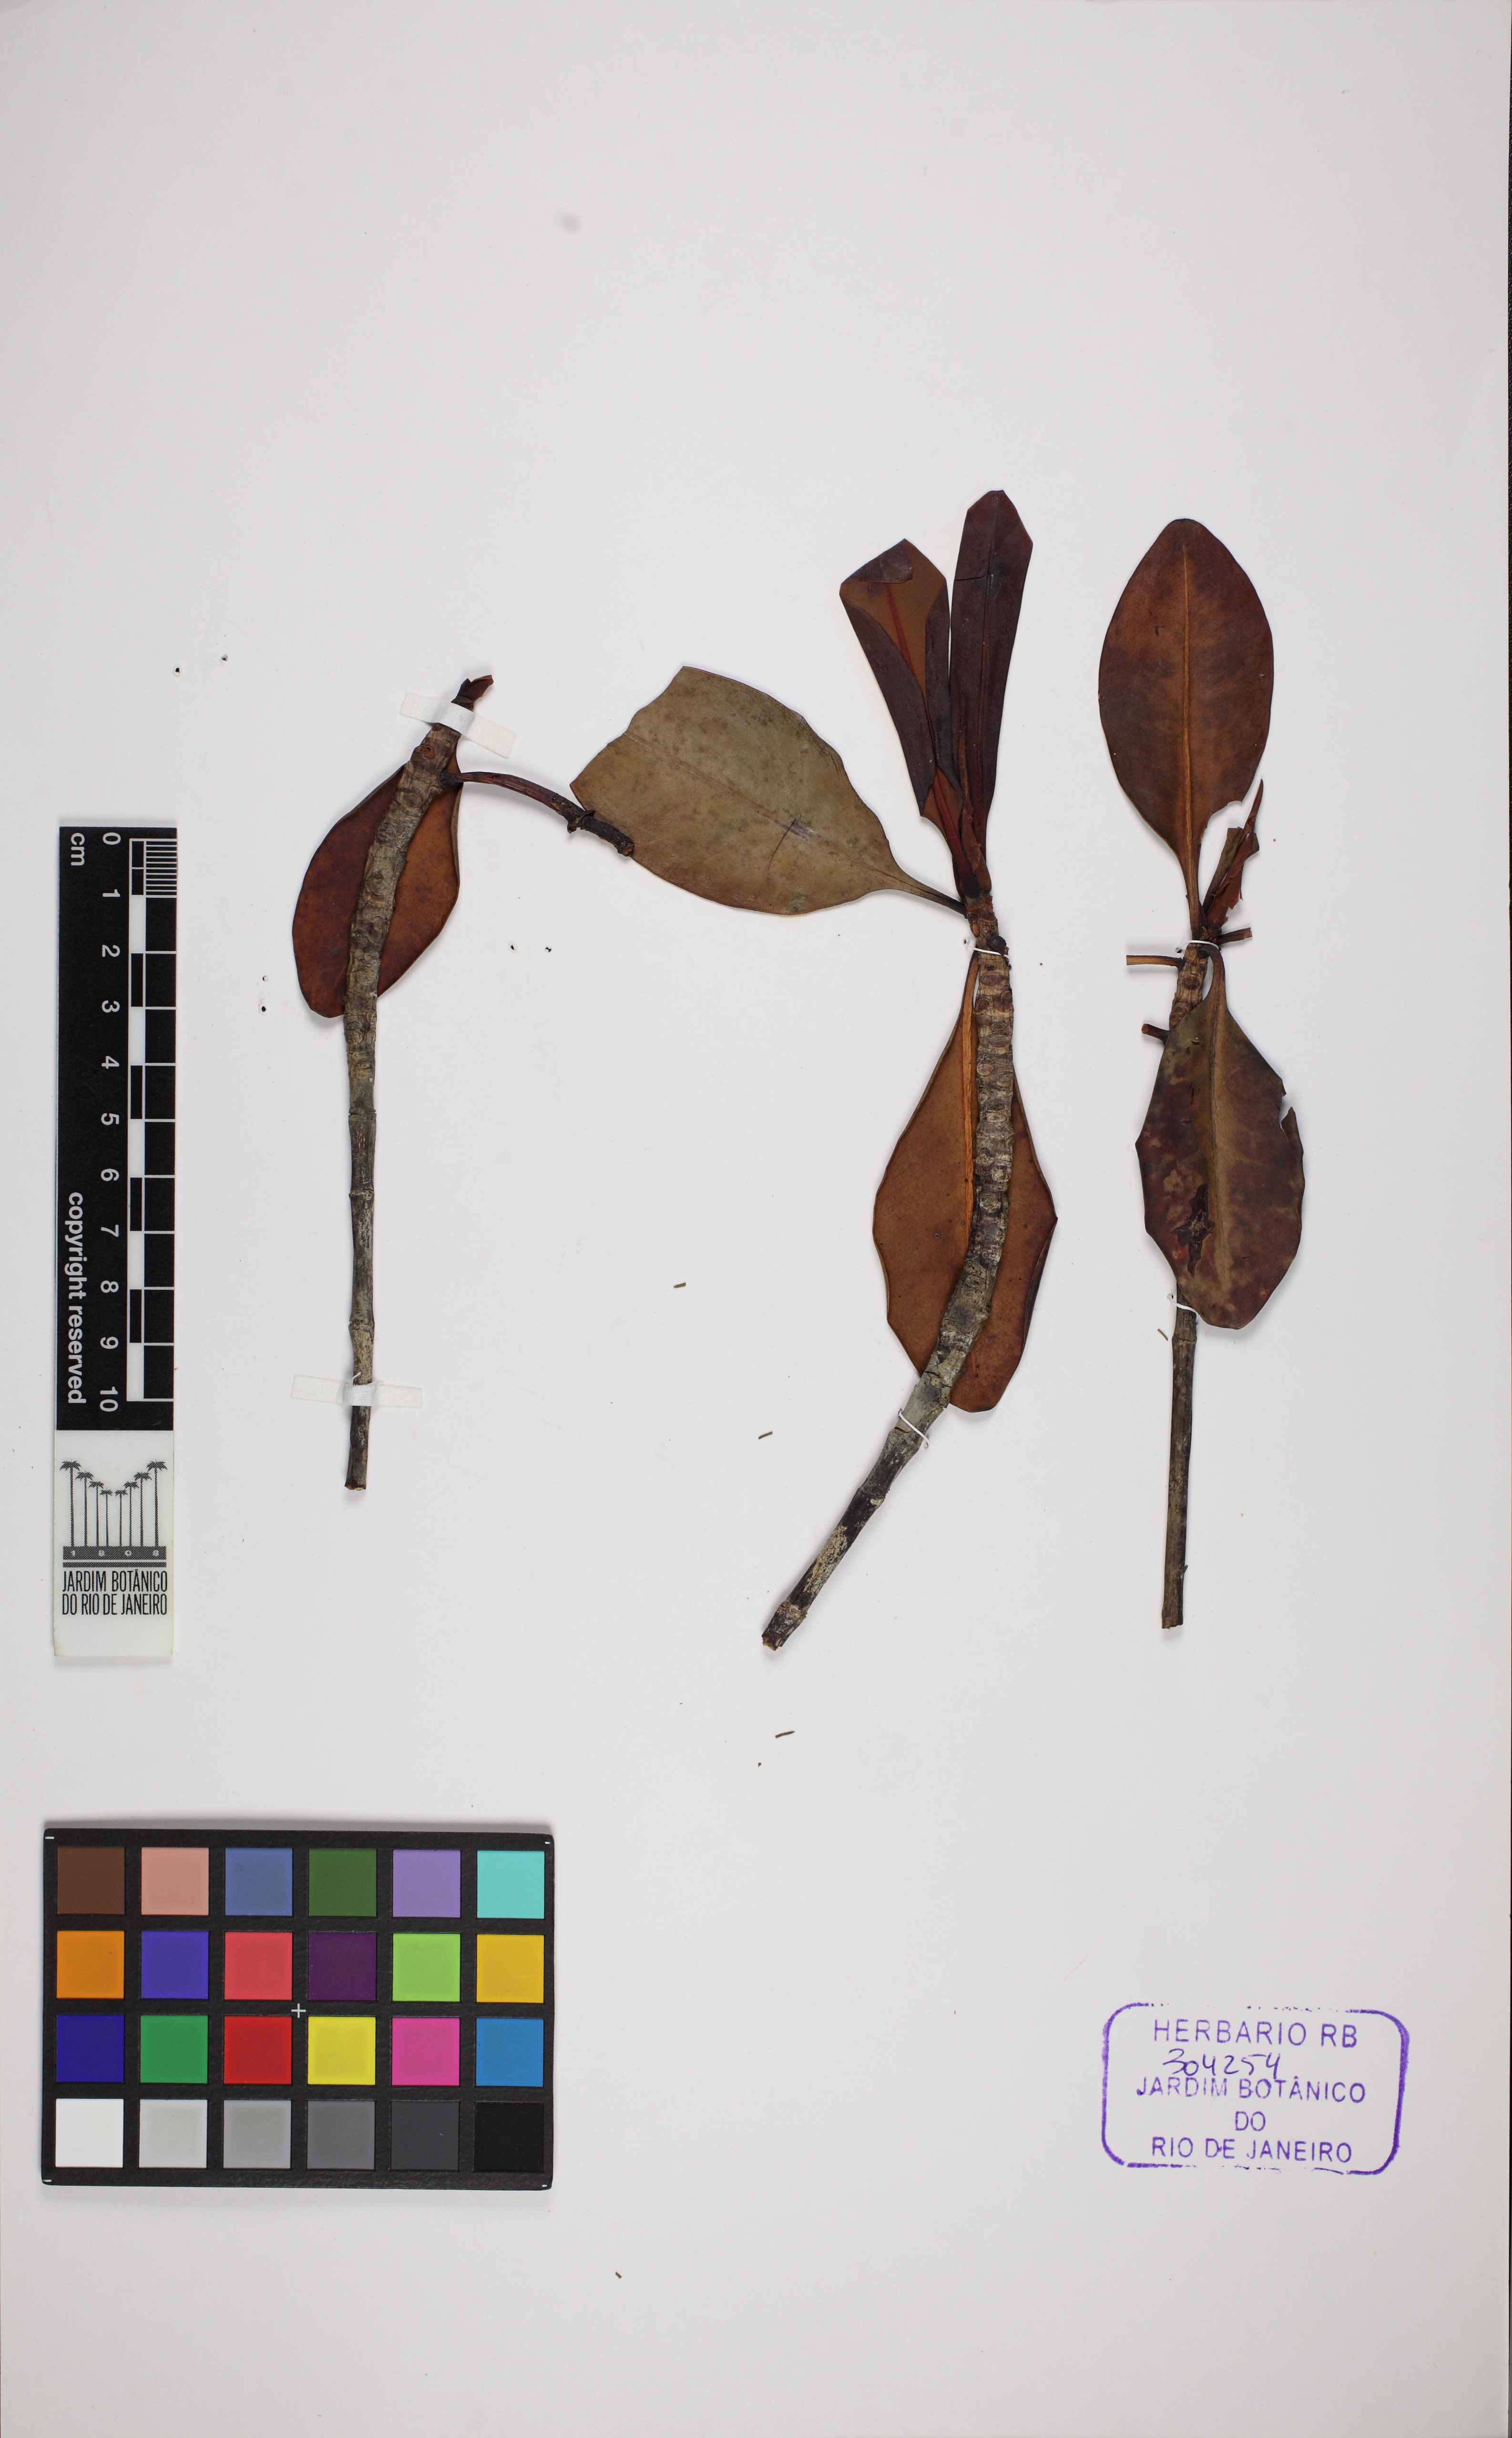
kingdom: Plantae
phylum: Tracheophyta
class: Magnoliopsida
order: Malpighiales
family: Rhizophoraceae
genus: Rhizophora
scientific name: Rhizophora mangle
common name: Red mangrove
